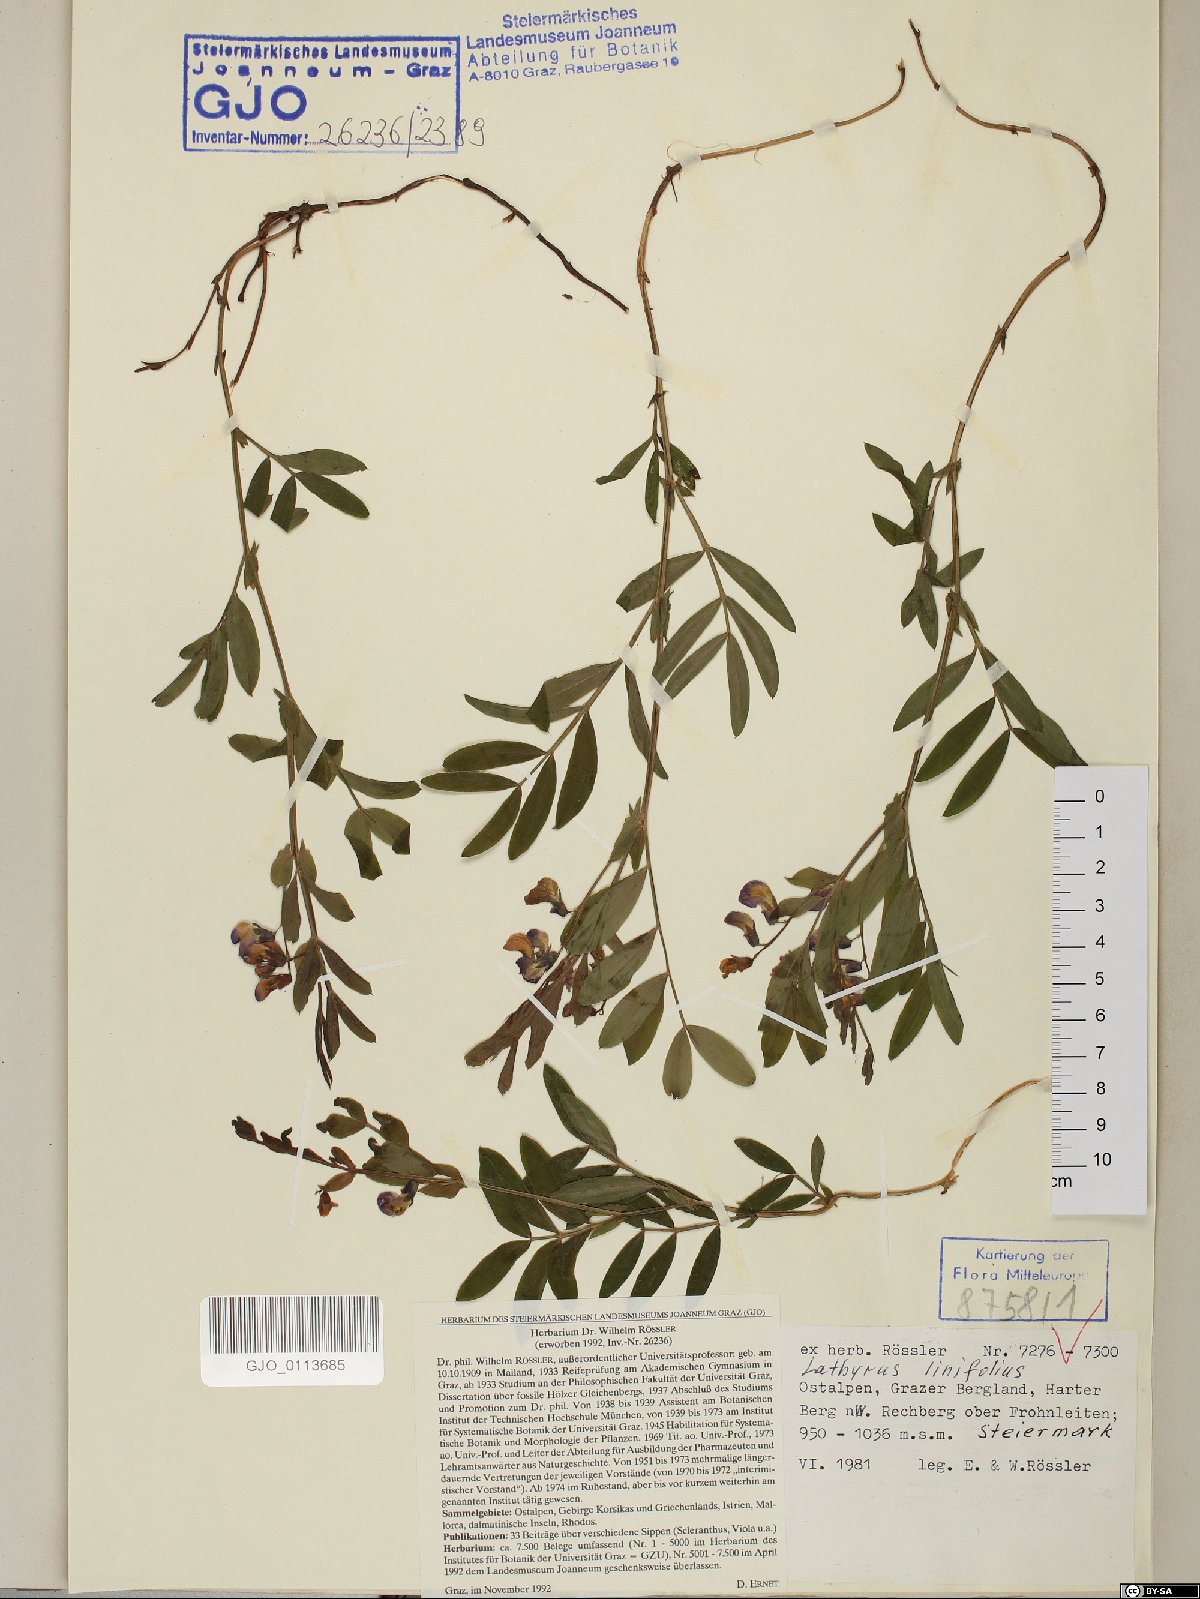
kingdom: Plantae
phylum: Tracheophyta
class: Magnoliopsida
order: Fabales
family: Fabaceae
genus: Lathyrus
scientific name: Lathyrus linifolius
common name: Bitter-vetch
